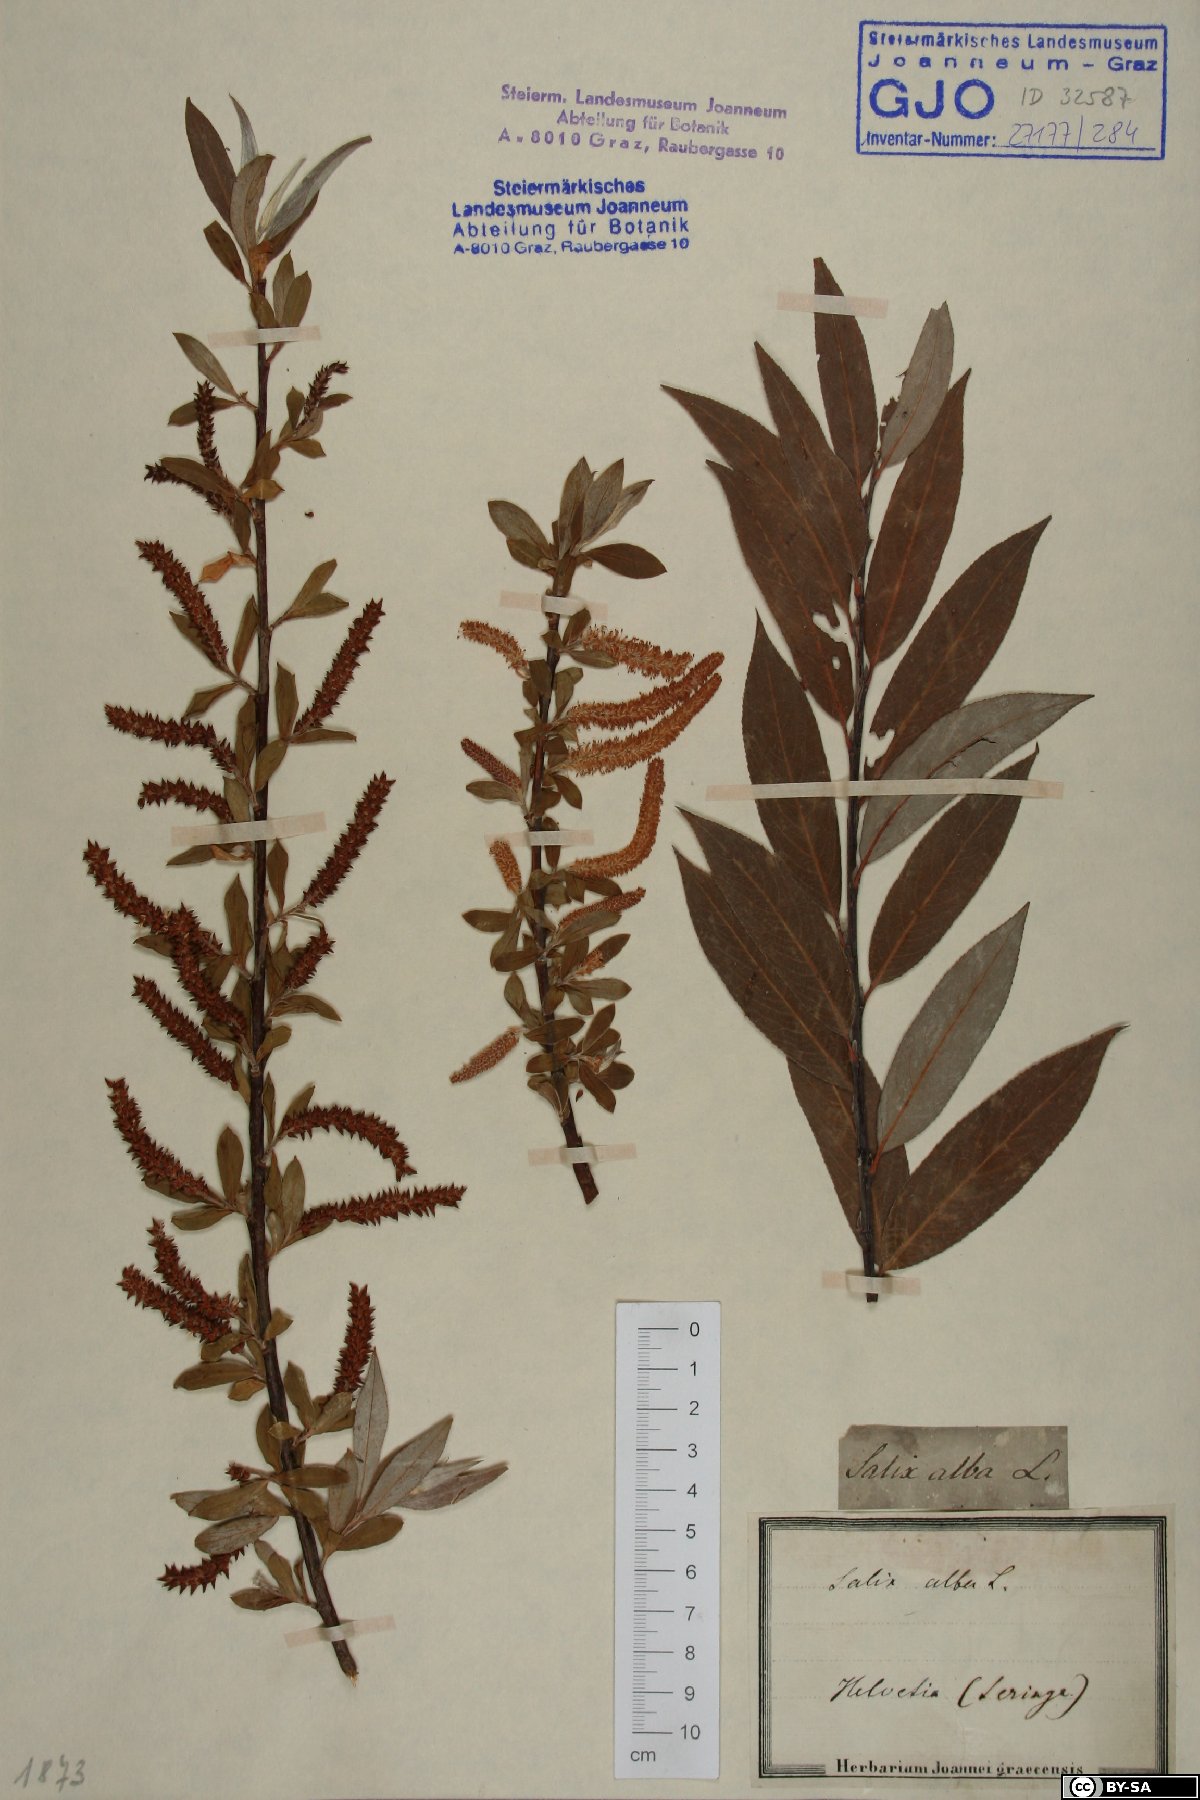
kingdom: Plantae
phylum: Tracheophyta
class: Magnoliopsida
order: Malpighiales
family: Salicaceae
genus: Salix
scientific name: Salix alba
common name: White willow
